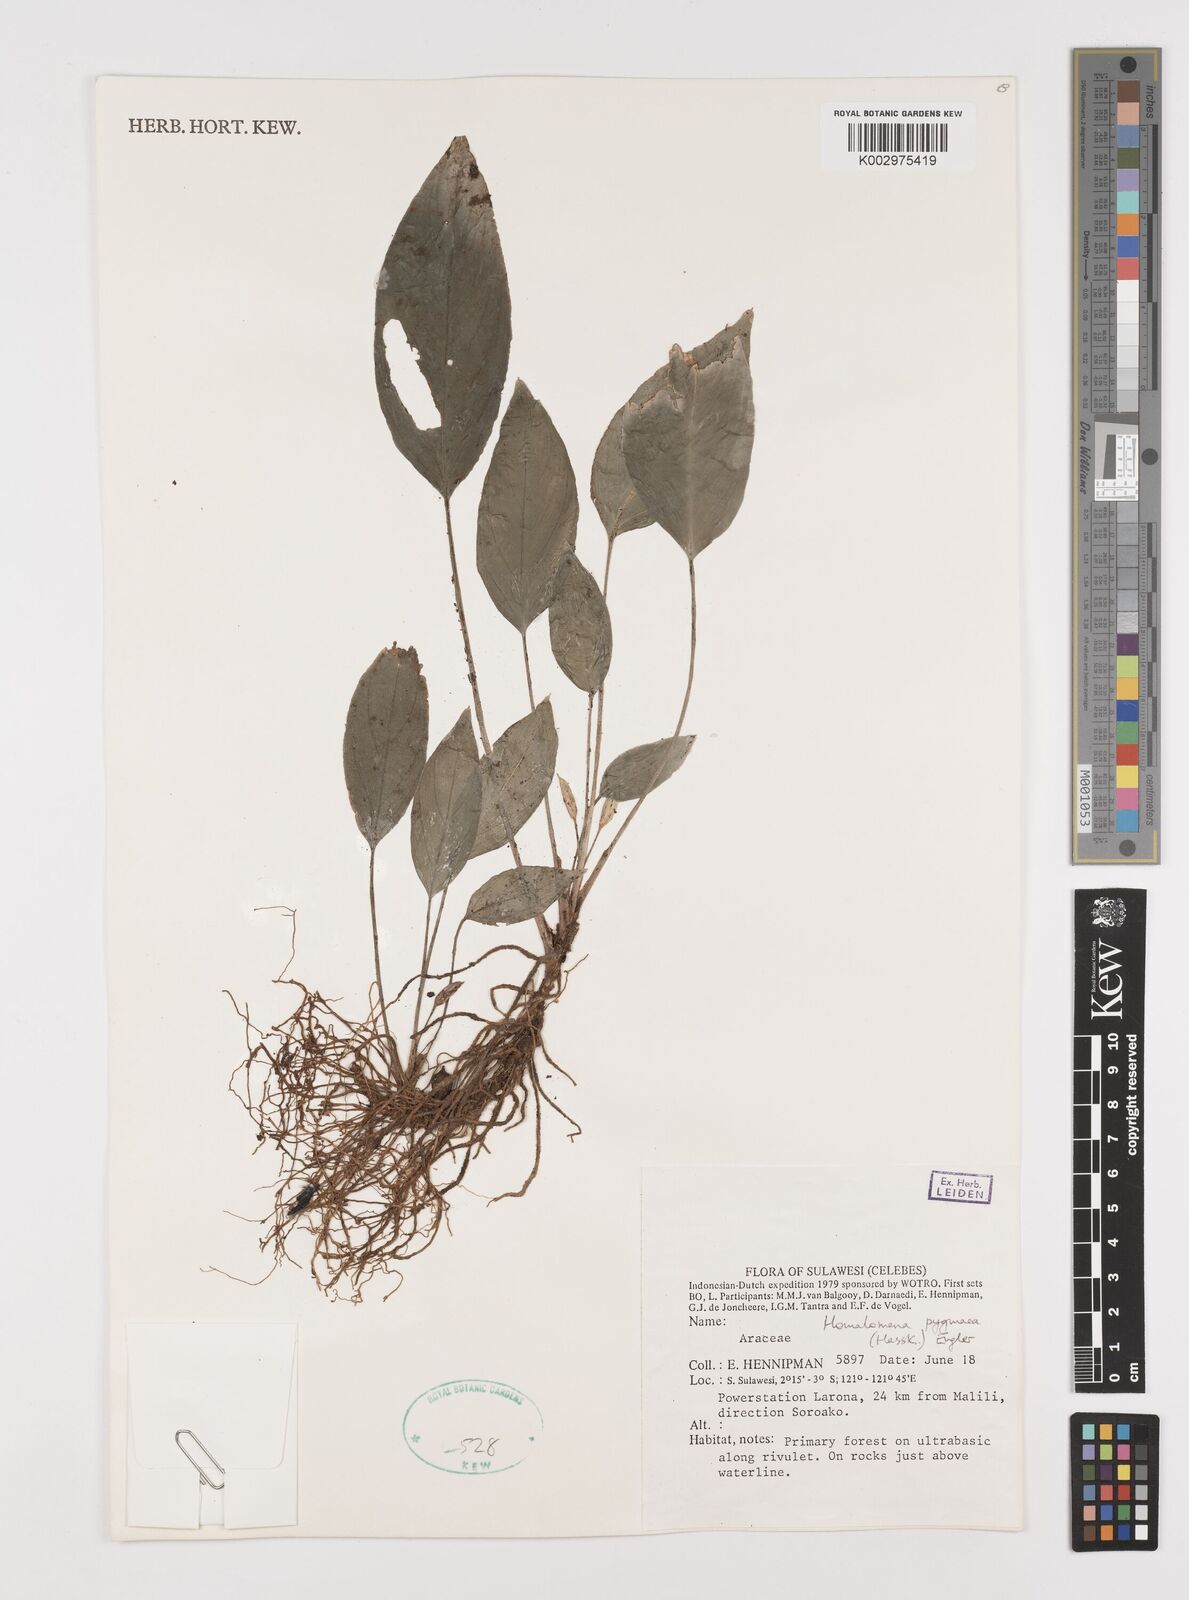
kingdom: Plantae
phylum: Tracheophyta
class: Liliopsida
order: Alismatales
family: Araceae
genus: Homalomena
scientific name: Homalomena humilis
